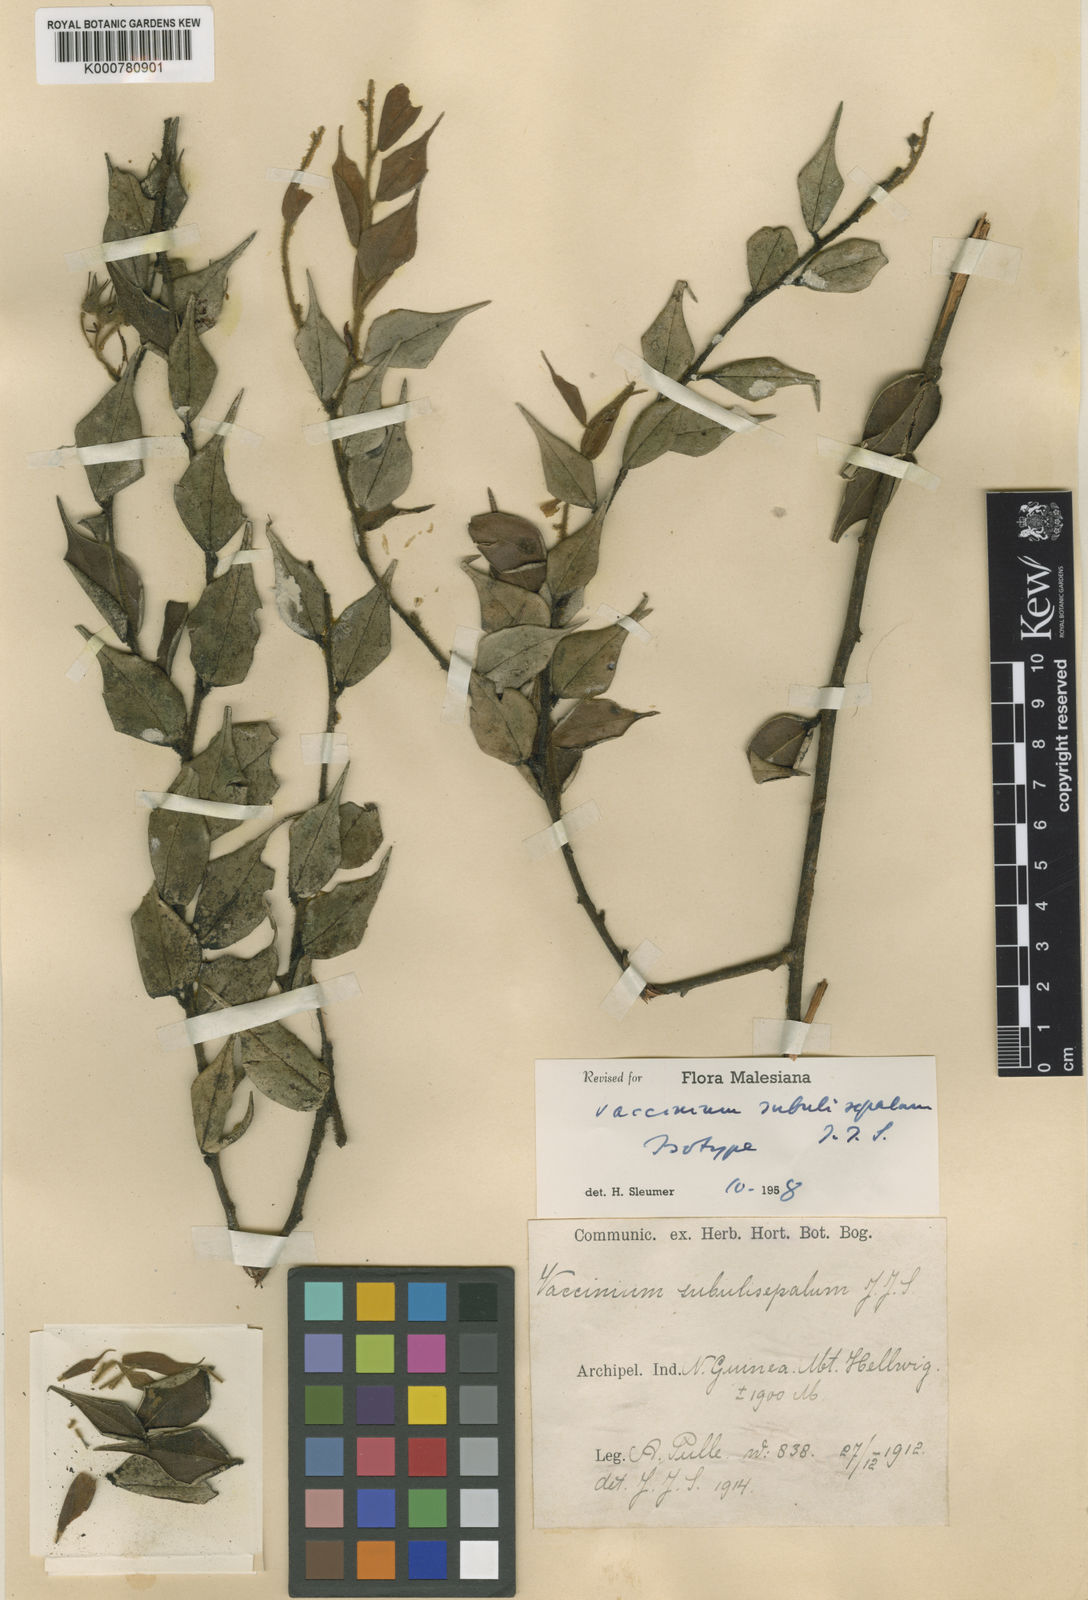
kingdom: Plantae
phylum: Tracheophyta
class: Magnoliopsida
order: Ericales
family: Ericaceae
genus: Vaccinium
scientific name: Vaccinium subulisepalum
